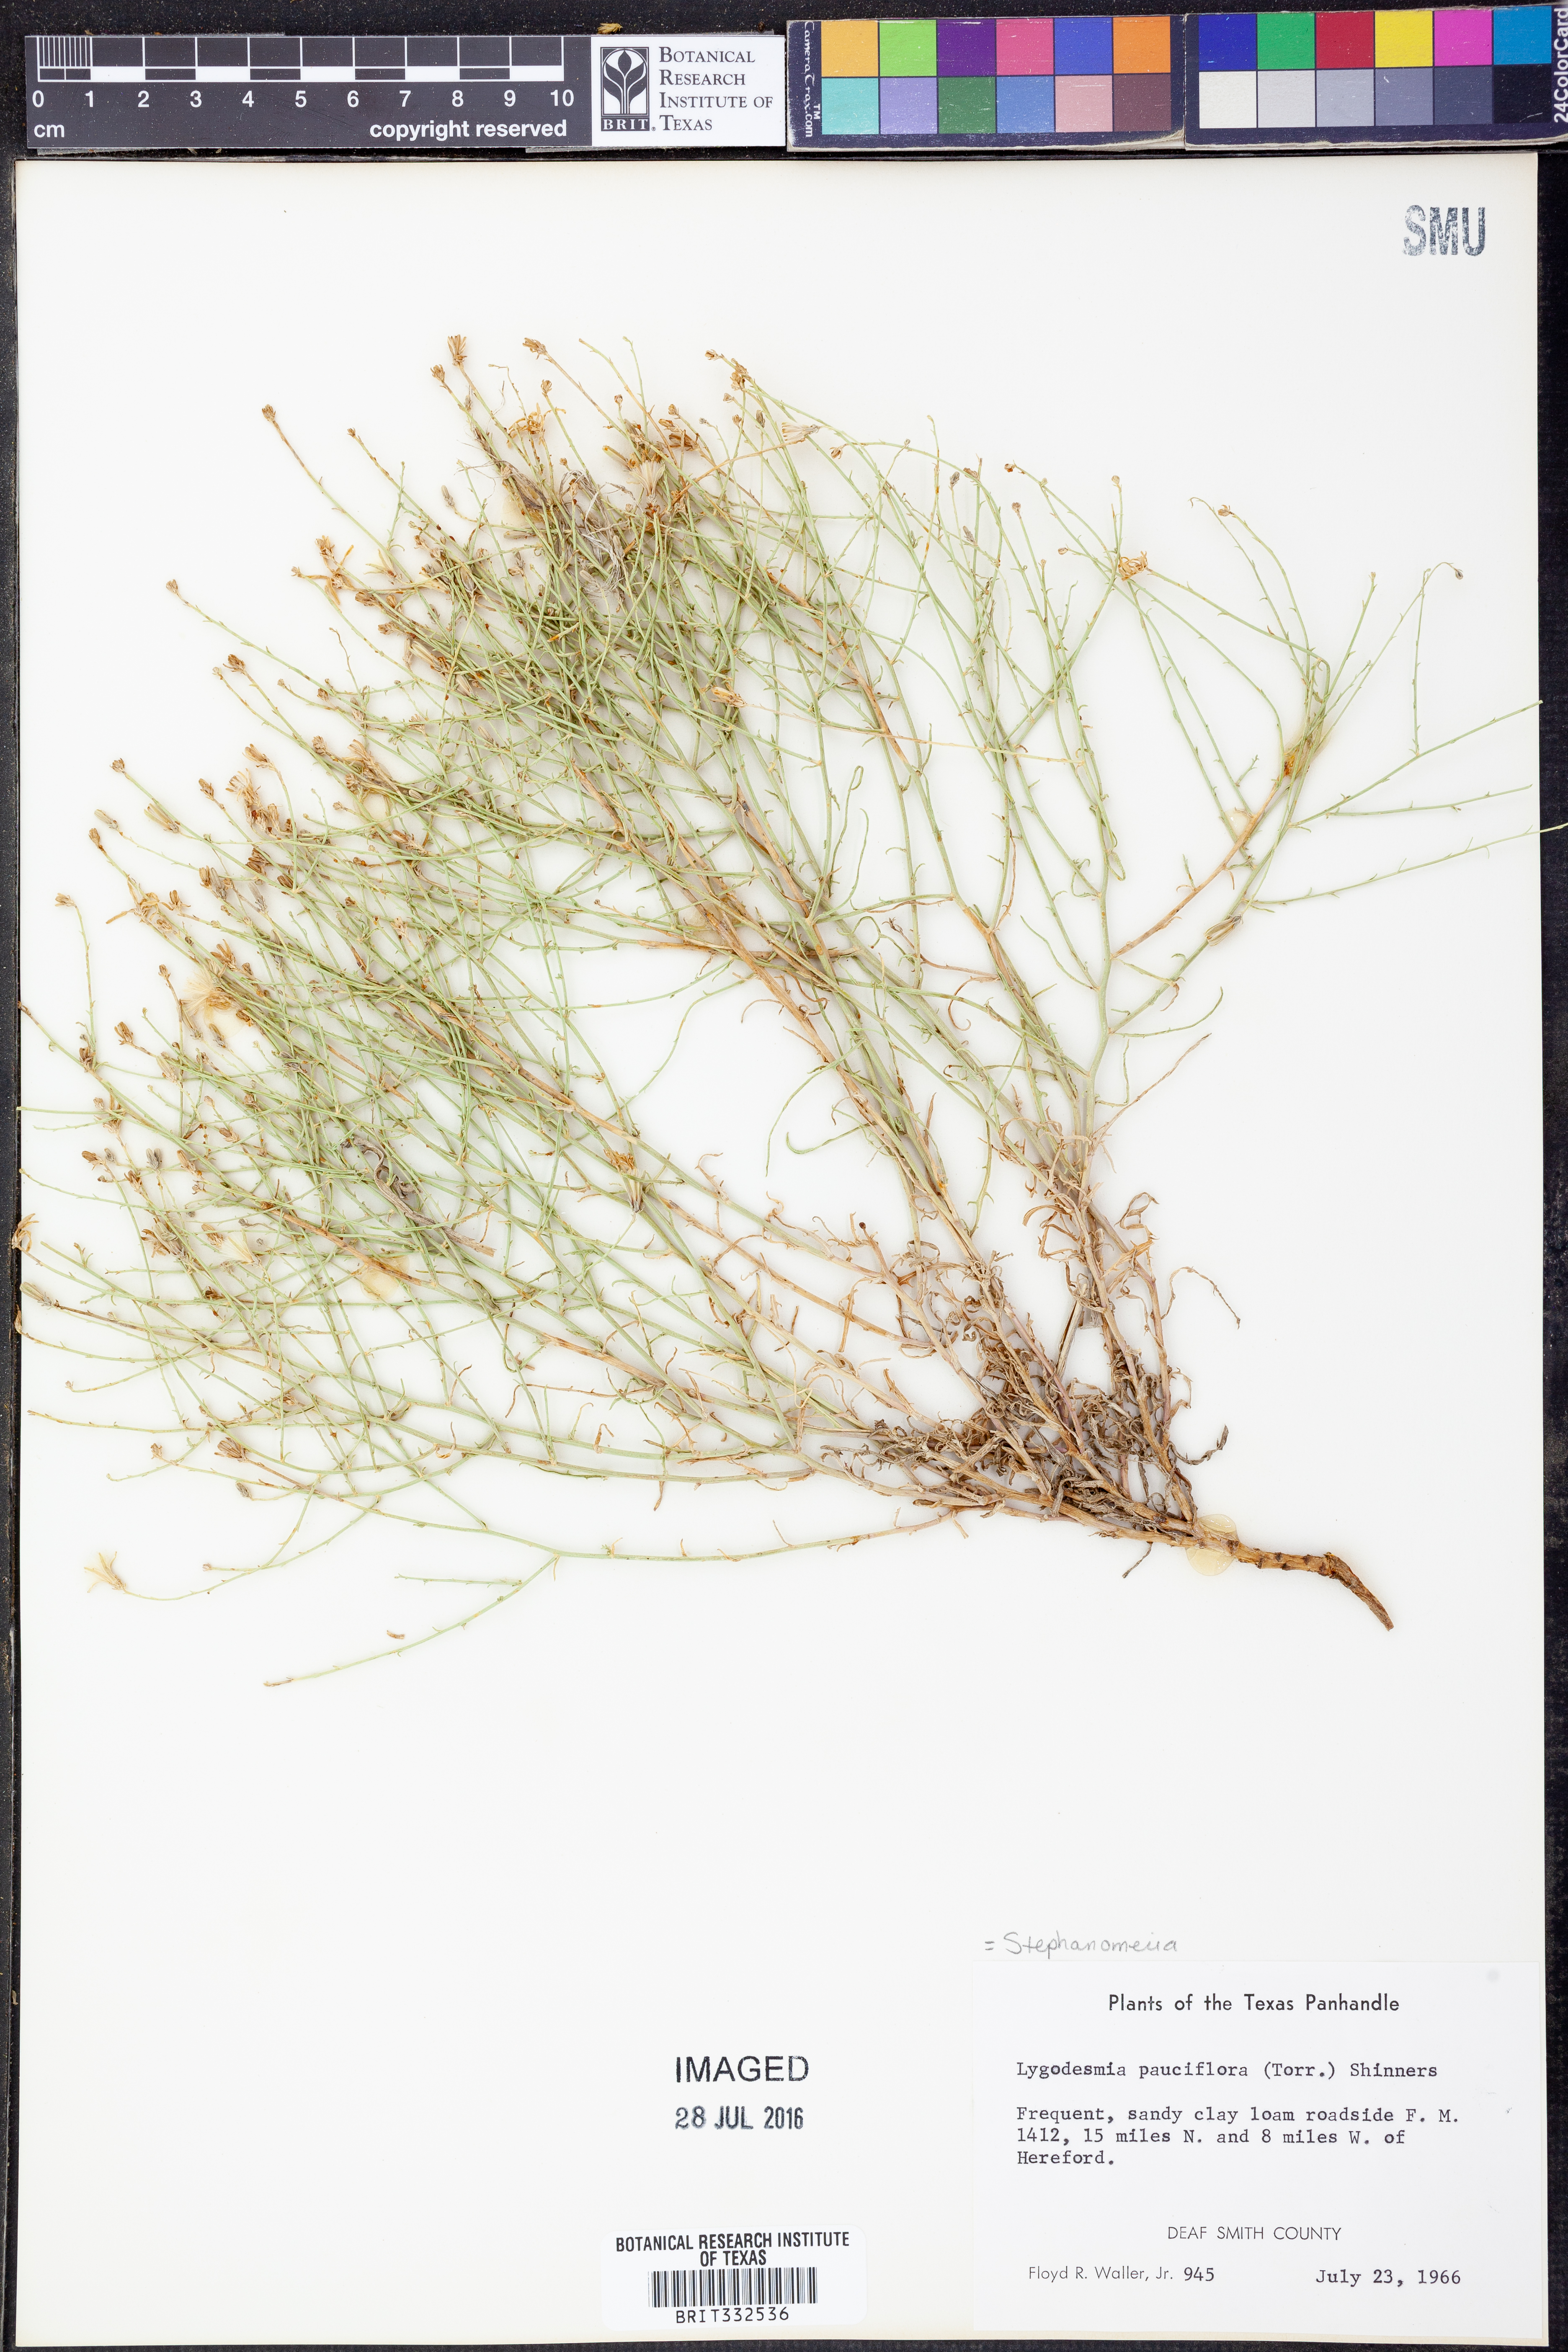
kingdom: Plantae
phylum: Tracheophyta
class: Magnoliopsida
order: Asterales
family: Asteraceae
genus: Stephanomeria
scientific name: Stephanomeria pauciflora
